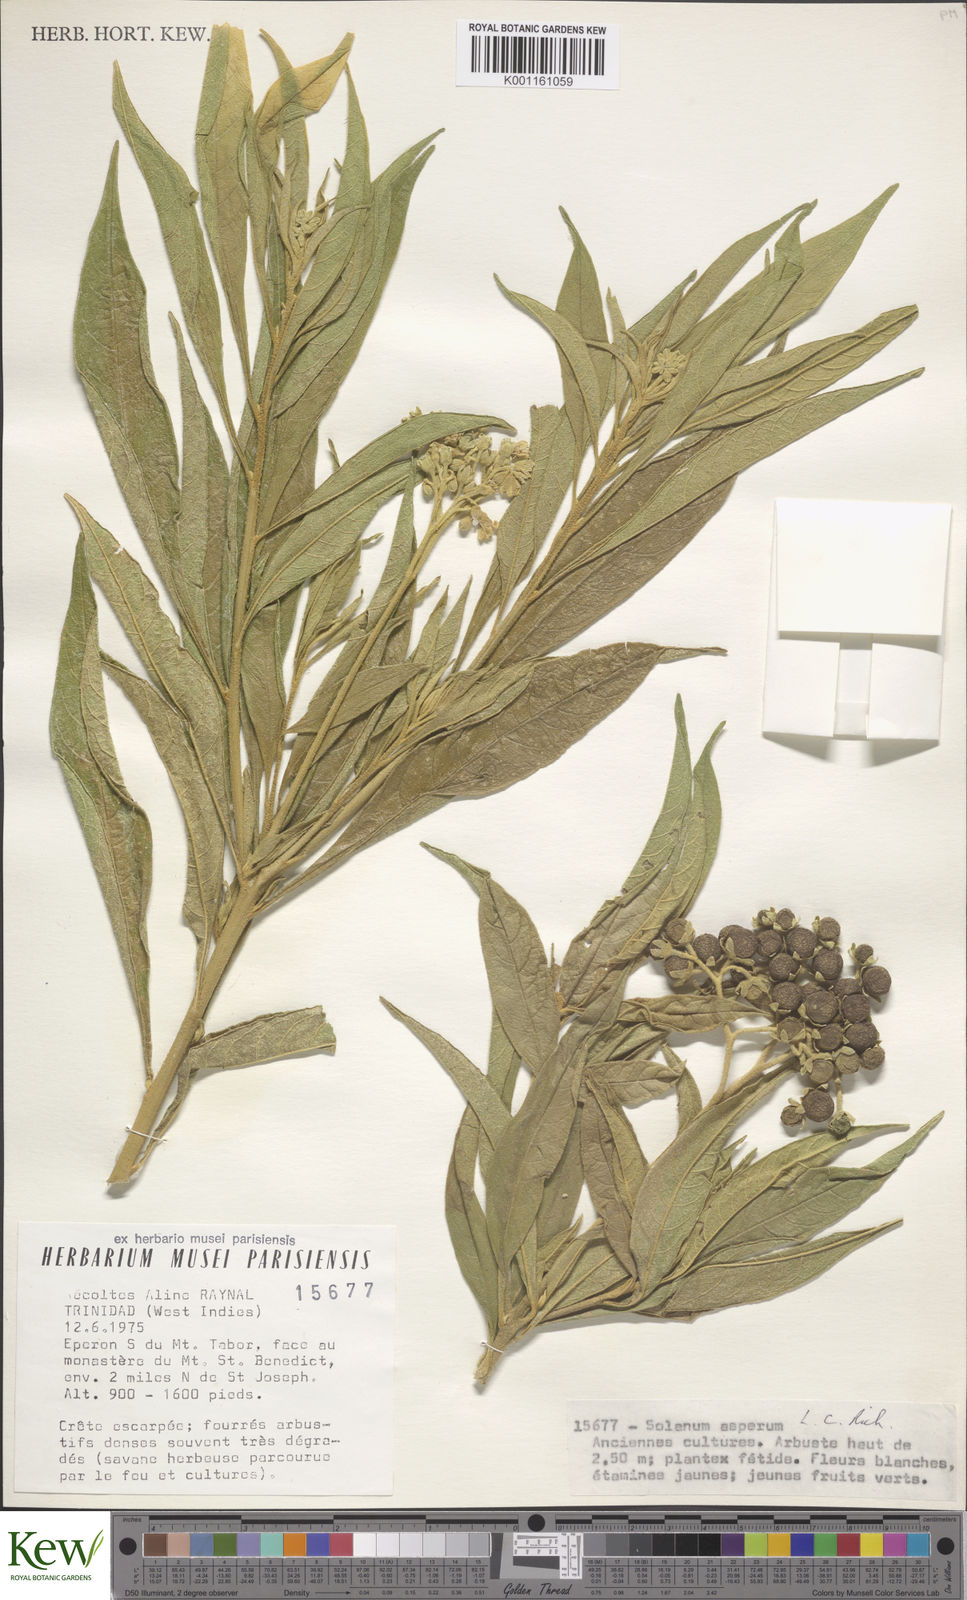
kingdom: Plantae
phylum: Tracheophyta
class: Magnoliopsida
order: Solanales
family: Solanaceae
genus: Solanum
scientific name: Solanum asperum
